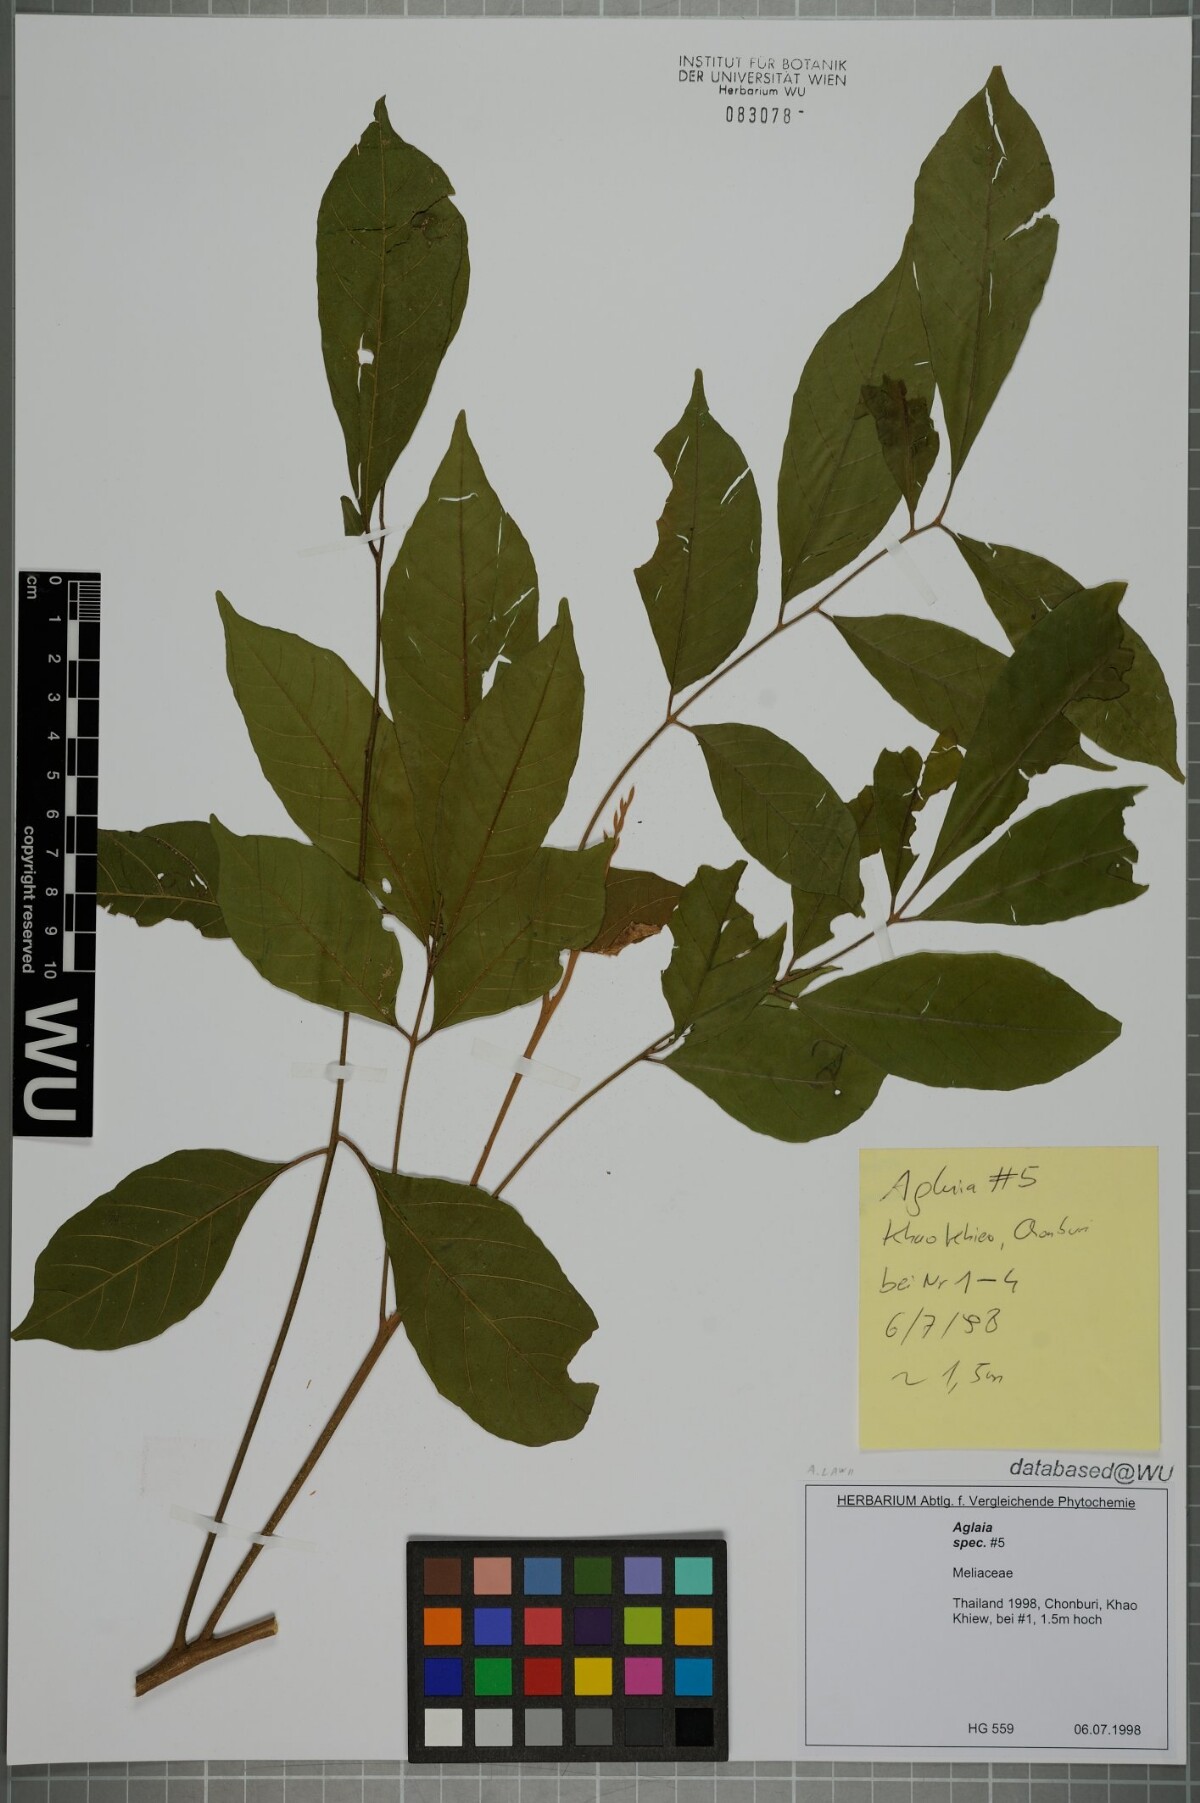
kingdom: Plantae
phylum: Tracheophyta
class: Magnoliopsida
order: Sapindales
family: Meliaceae
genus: Aglaia
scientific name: Aglaia lawii
